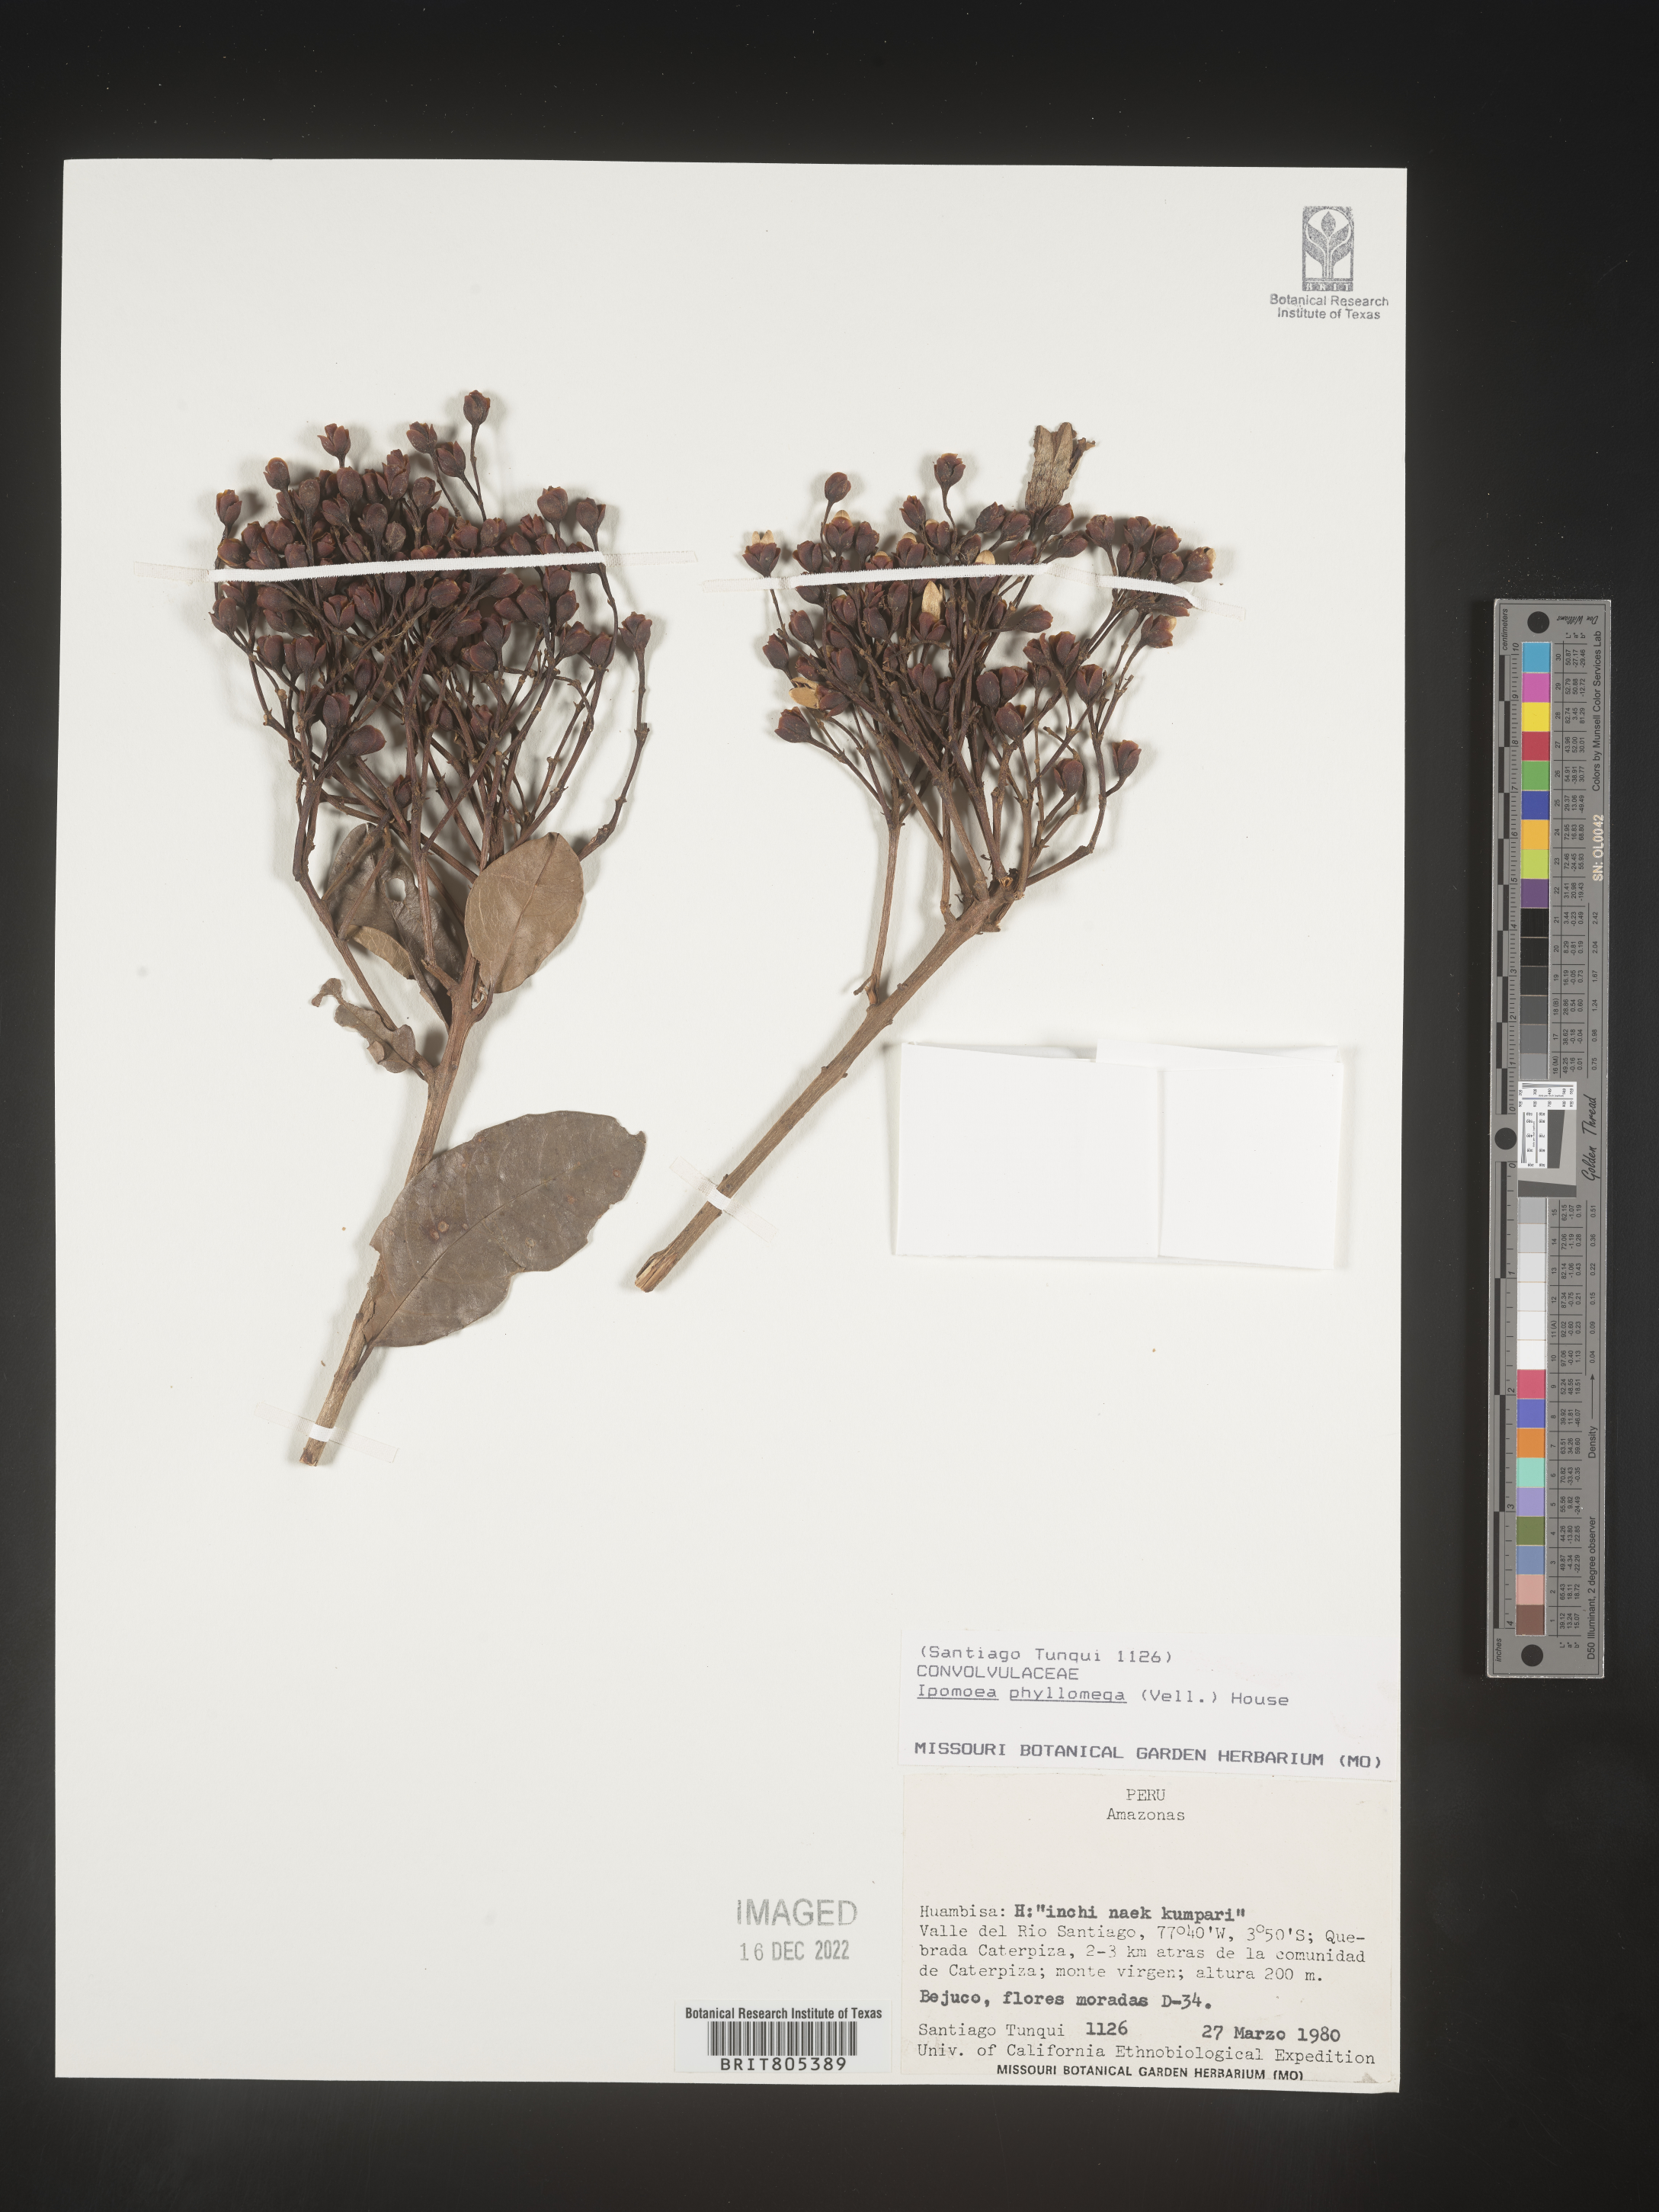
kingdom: Plantae
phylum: Tracheophyta
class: Magnoliopsida
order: Solanales
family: Convolvulaceae
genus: Ipomoea
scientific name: Ipomoea
